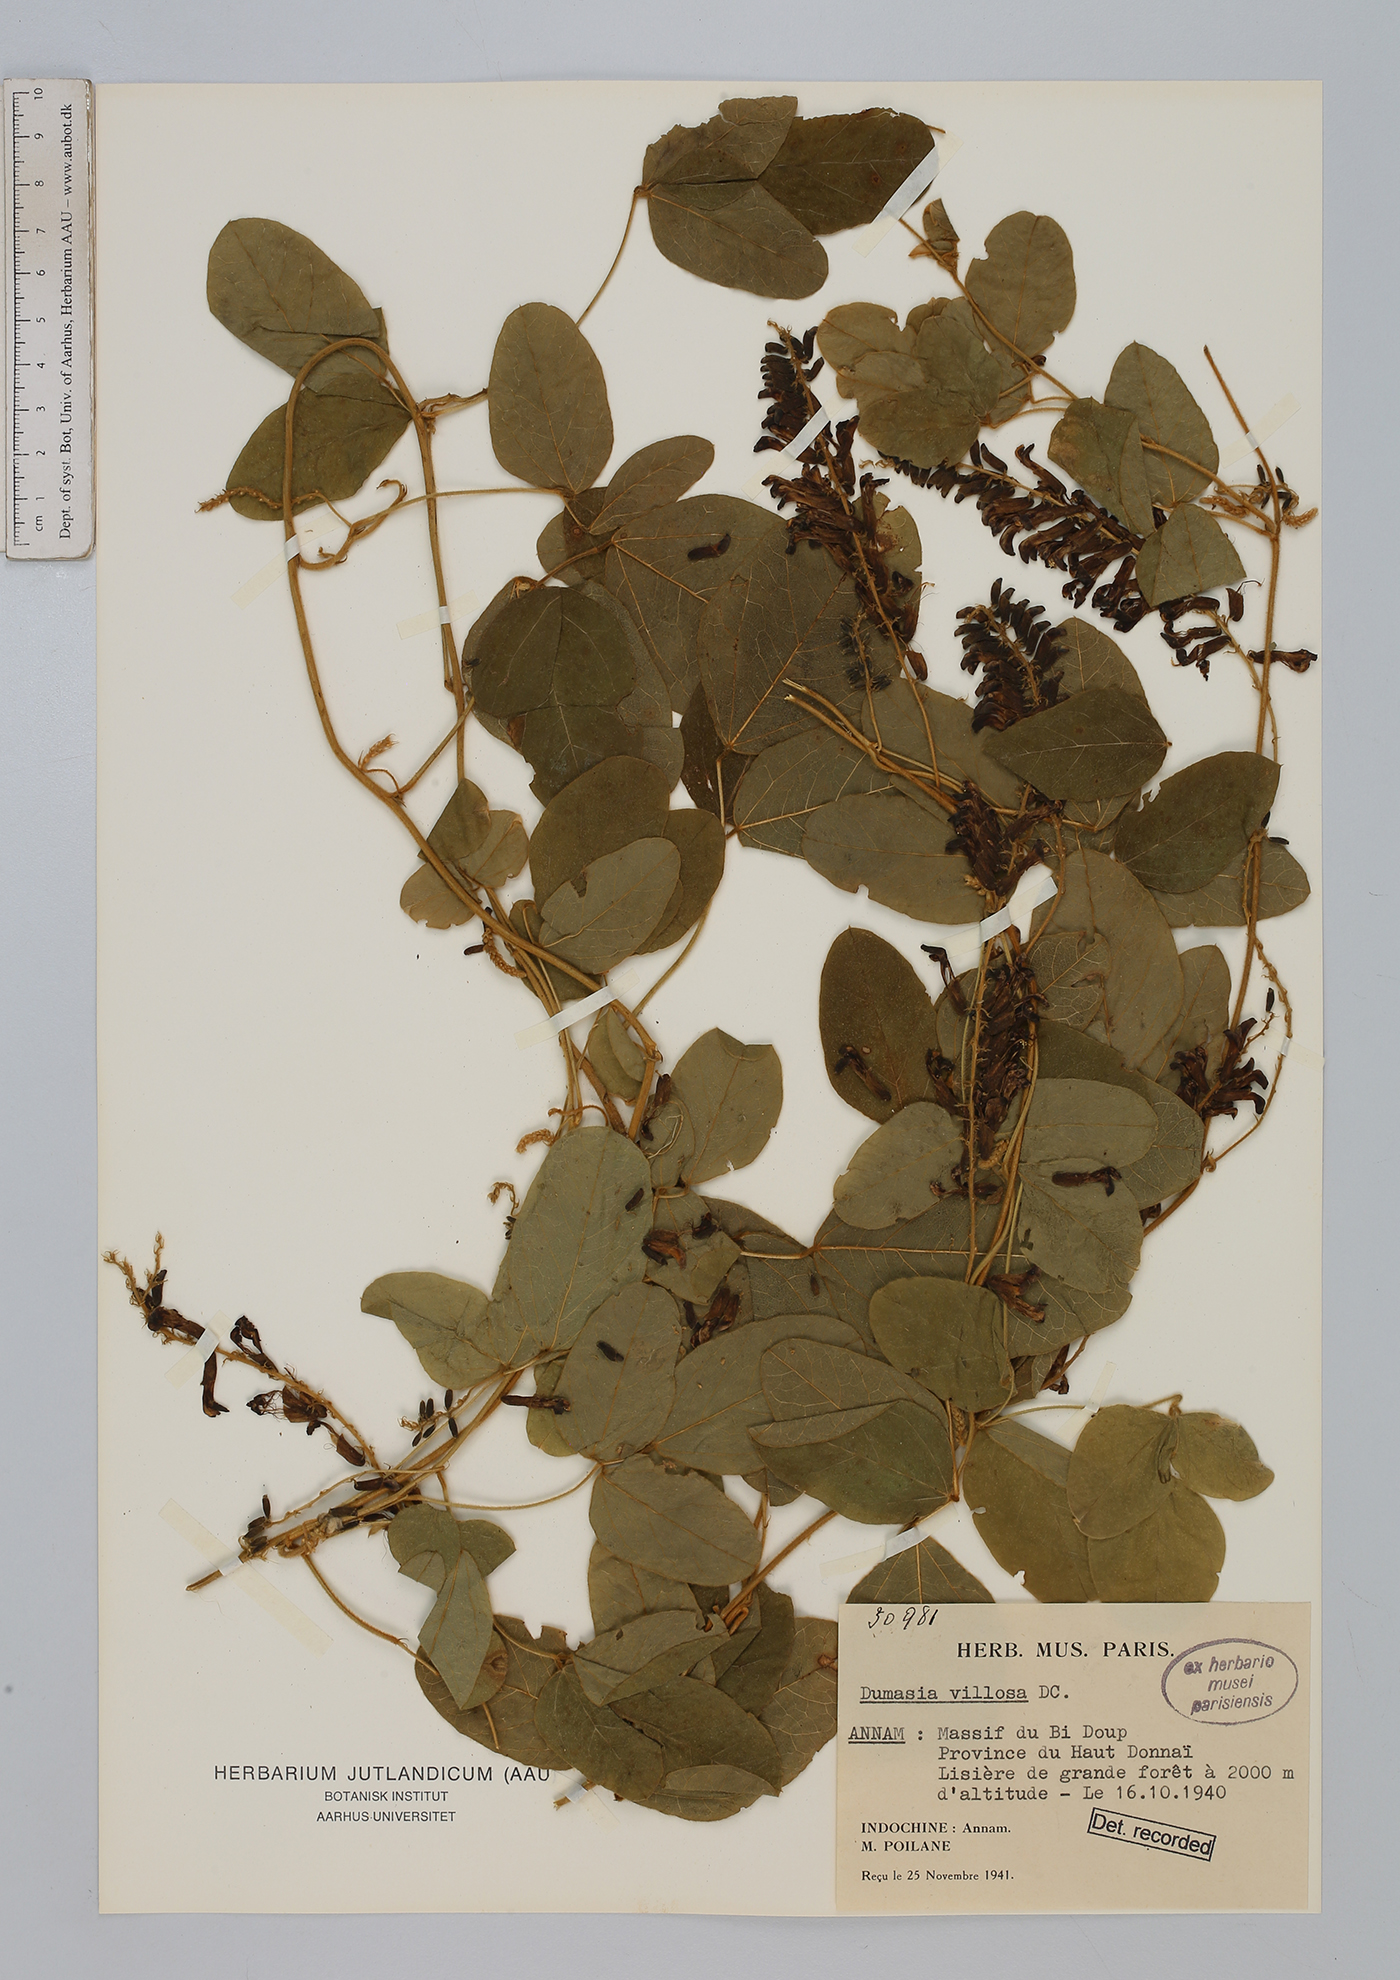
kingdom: Plantae
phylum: Tracheophyta
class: Magnoliopsida
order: Fabales
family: Fabaceae
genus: Dumasia
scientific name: Dumasia villosa
